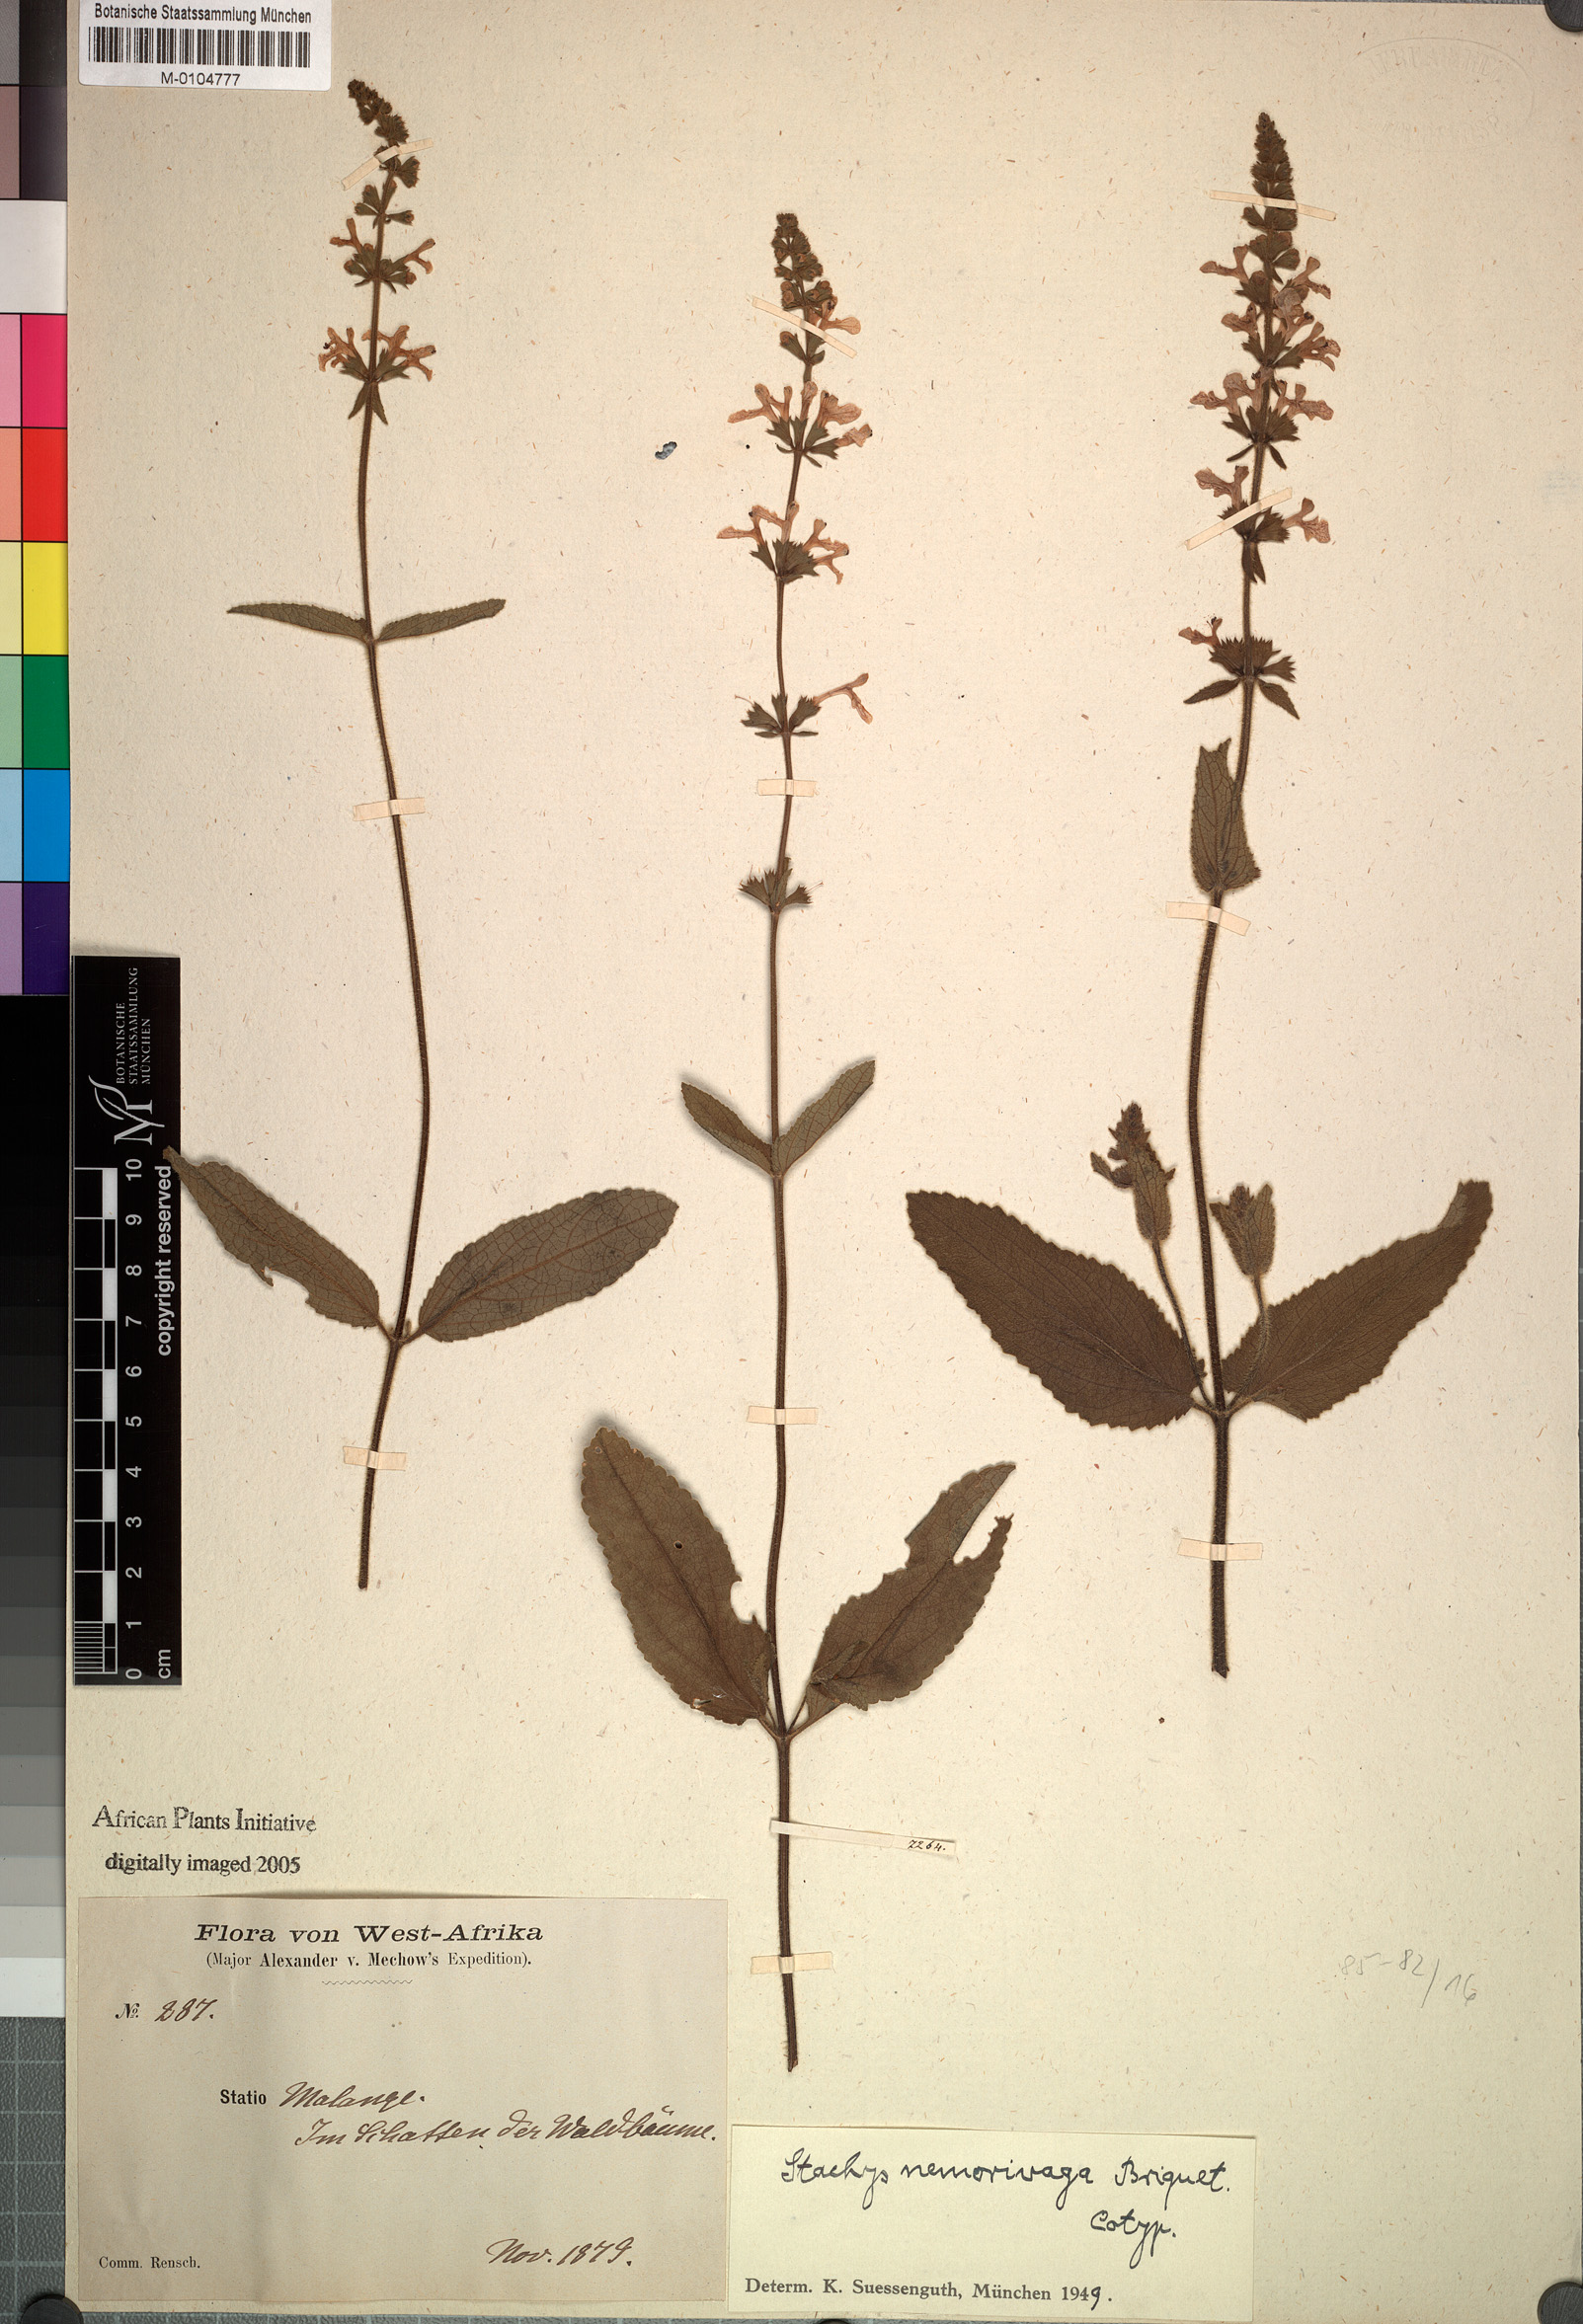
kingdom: Plantae
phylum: Tracheophyta
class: Magnoliopsida
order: Lamiales
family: Lamiaceae
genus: Stachys
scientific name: Stachys nemorivaga
